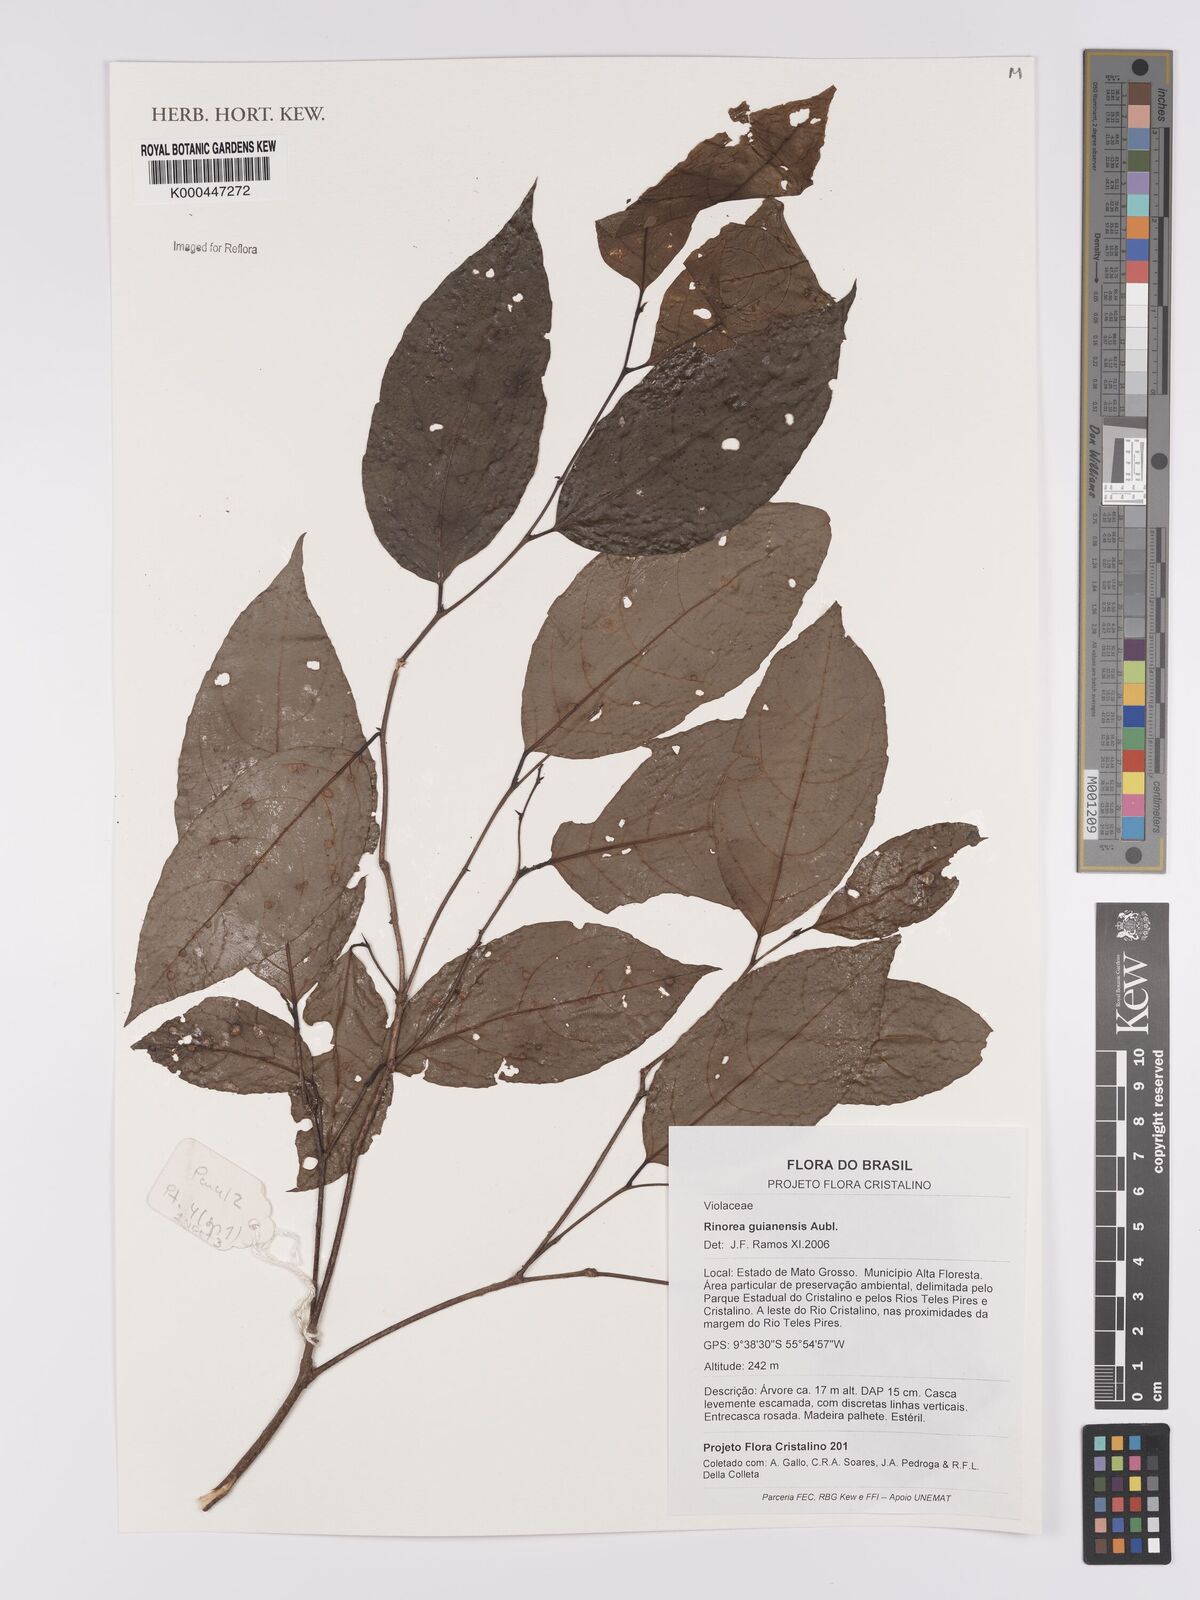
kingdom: Plantae
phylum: Tracheophyta
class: Magnoliopsida
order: Malpighiales
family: Violaceae
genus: Rinorea
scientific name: Rinorea guianensis
